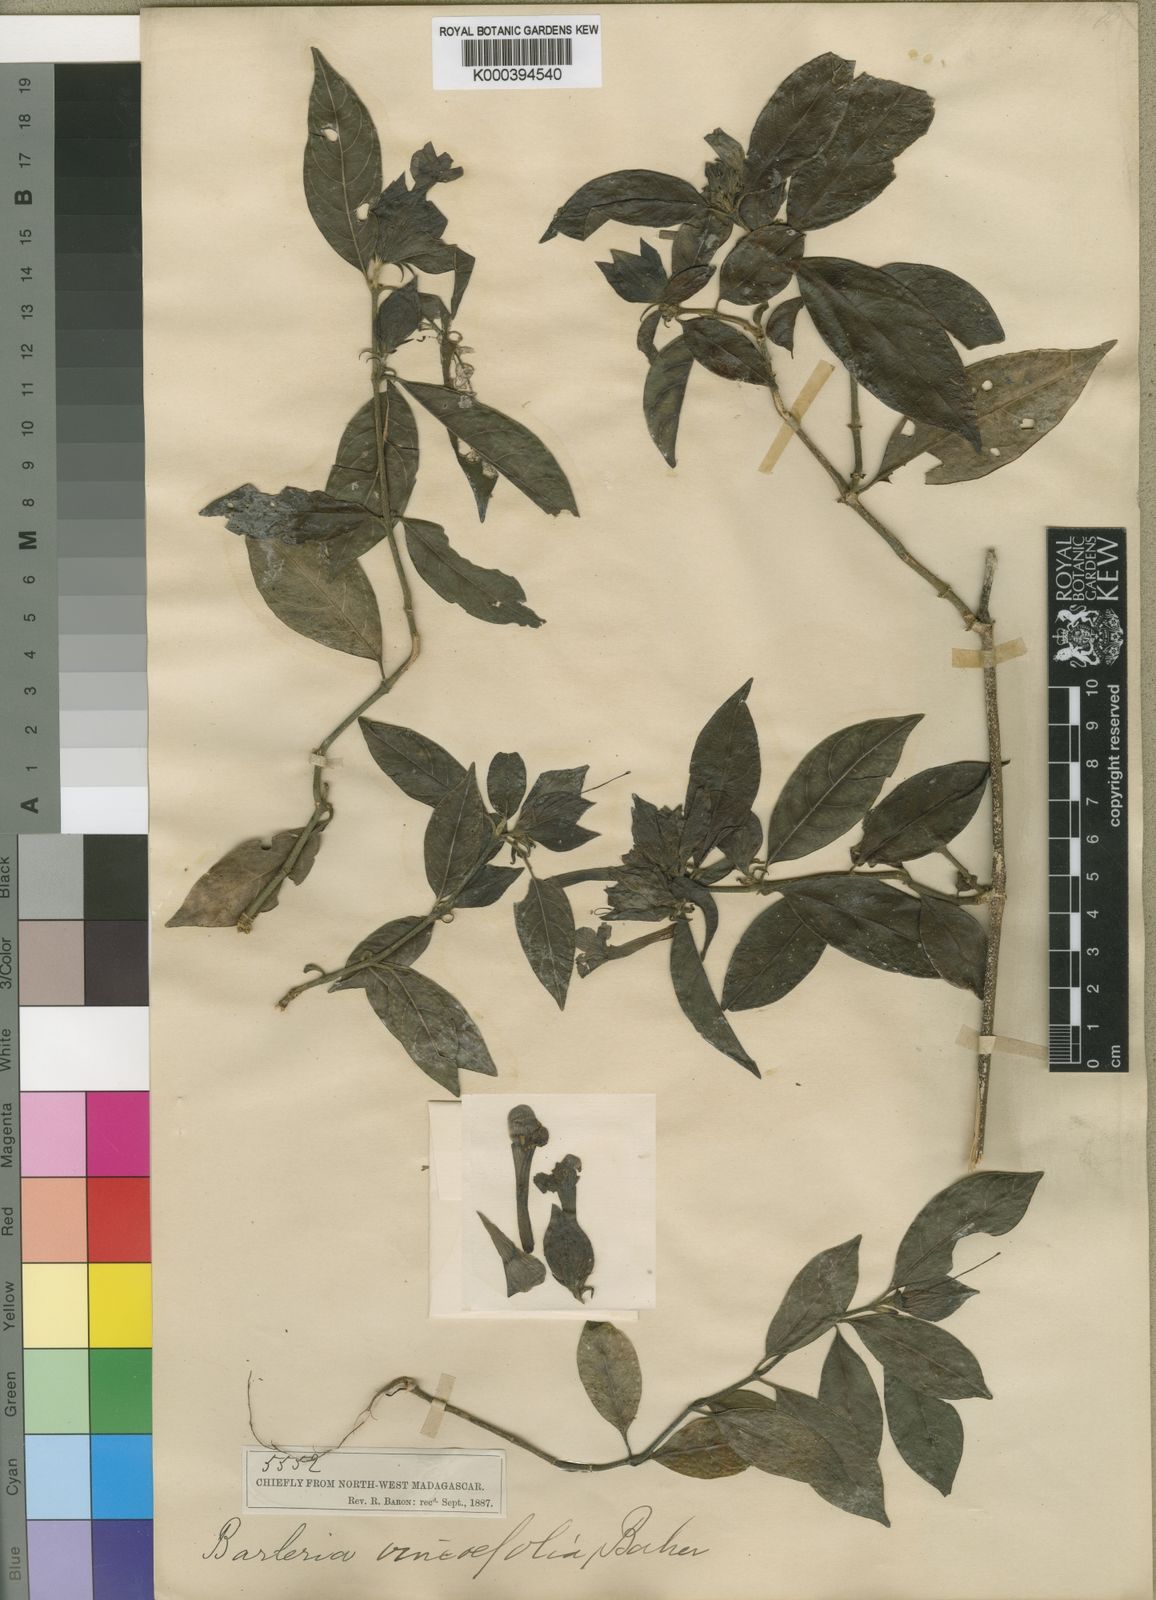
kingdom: Plantae
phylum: Tracheophyta
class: Magnoliopsida
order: Lamiales
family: Acanthaceae
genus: Barleria
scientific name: Barleria vincifolia
